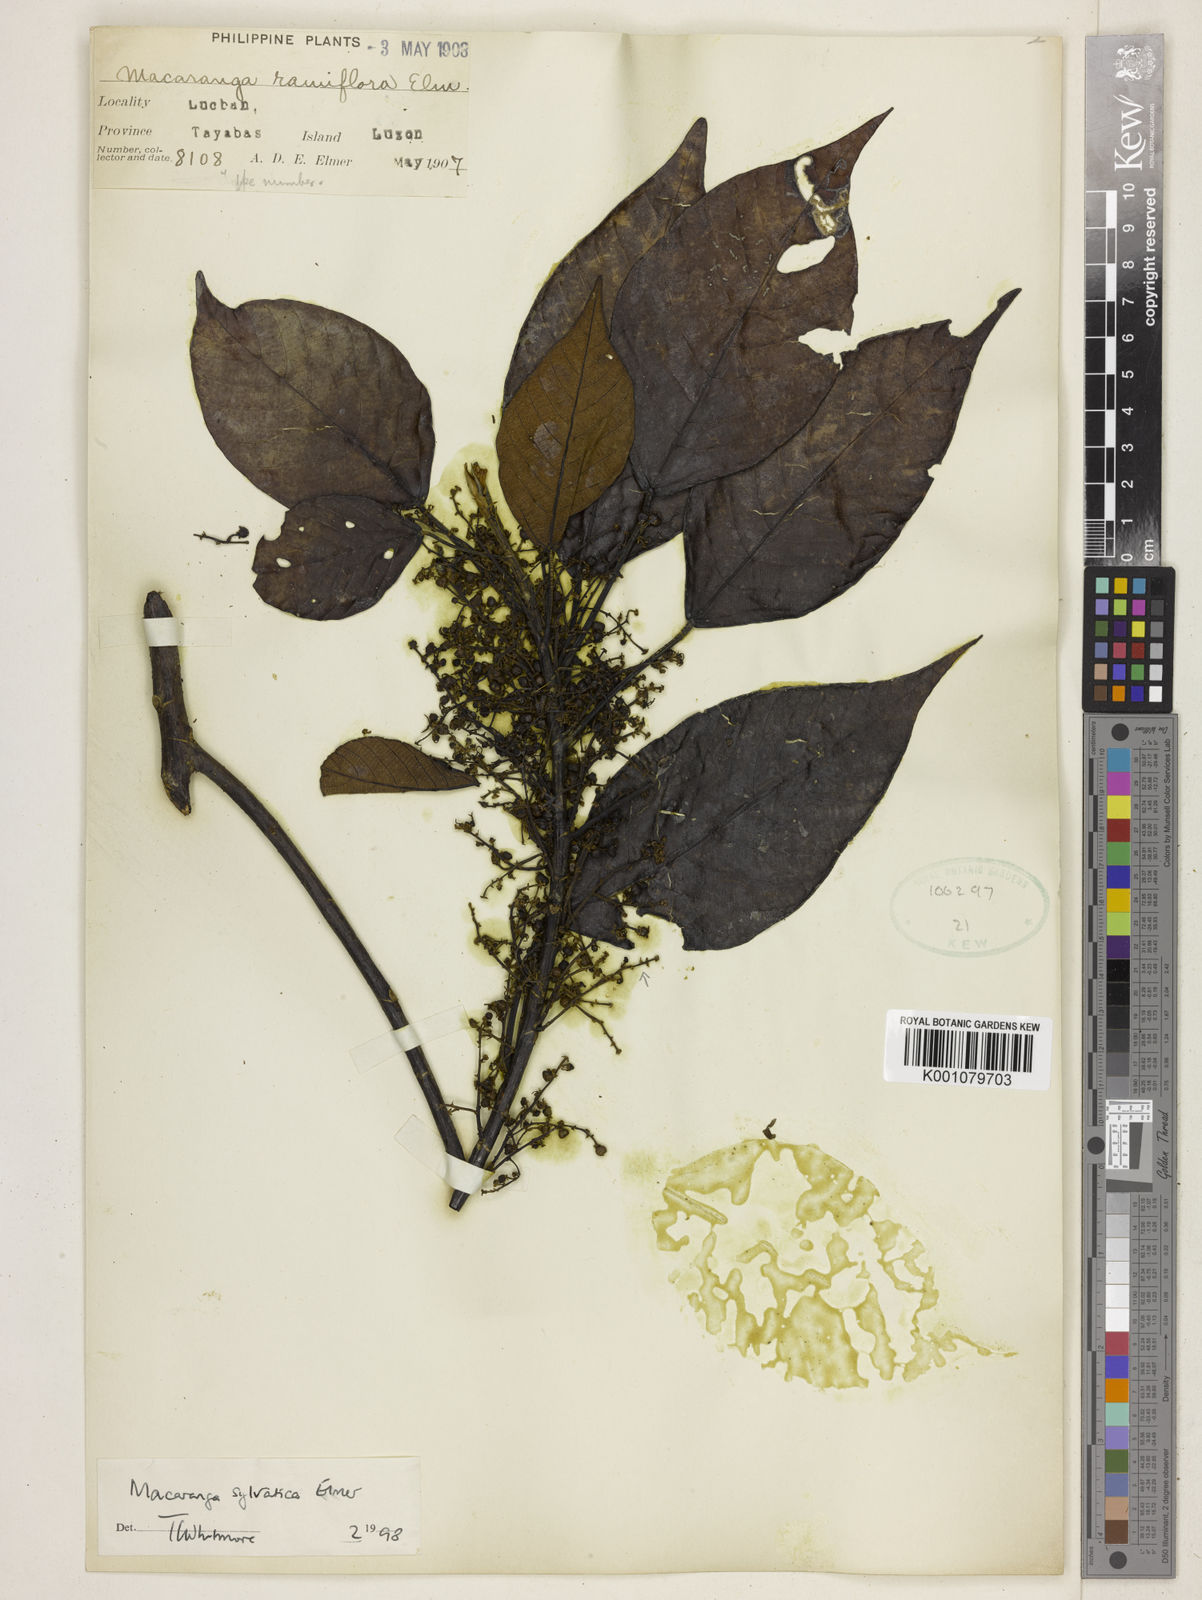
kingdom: Plantae
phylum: Tracheophyta
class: Magnoliopsida
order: Malpighiales
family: Euphorbiaceae
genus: Macaranga
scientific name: Macaranga sylvatica
